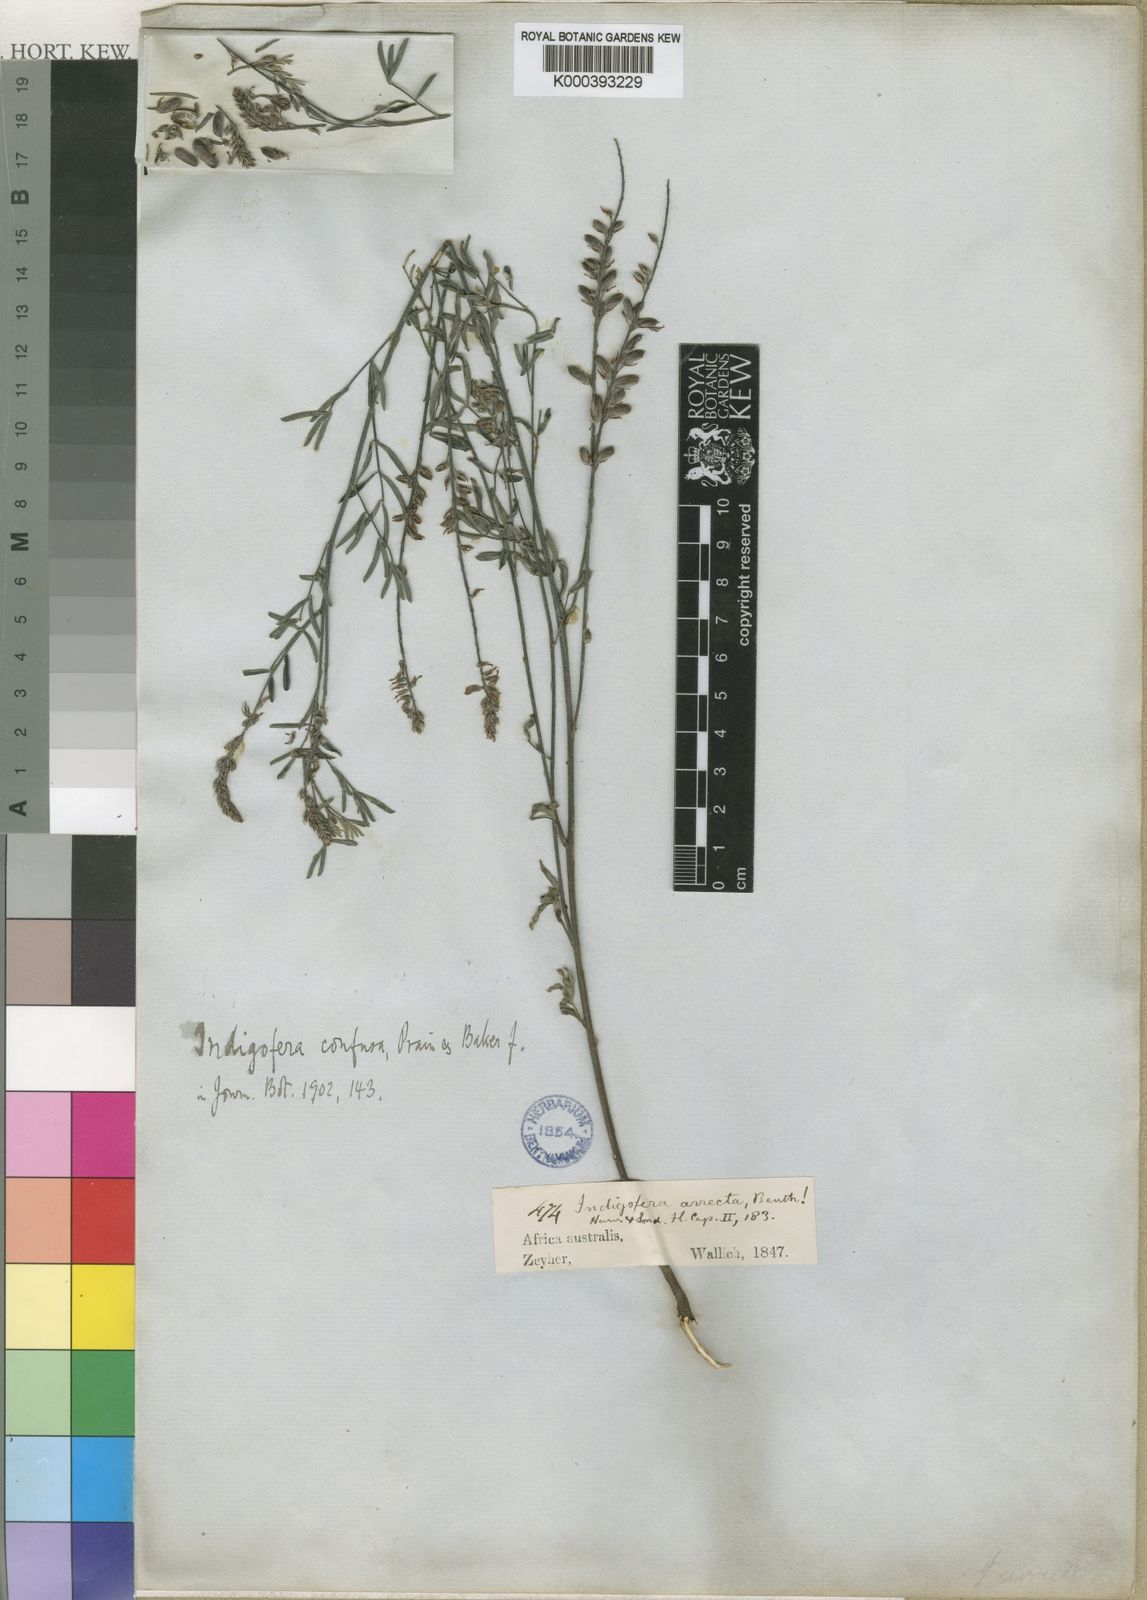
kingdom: Plantae
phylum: Tracheophyta
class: Magnoliopsida
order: Fabales
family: Fabaceae
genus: Indigofera
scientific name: Indigofera pretoriana
